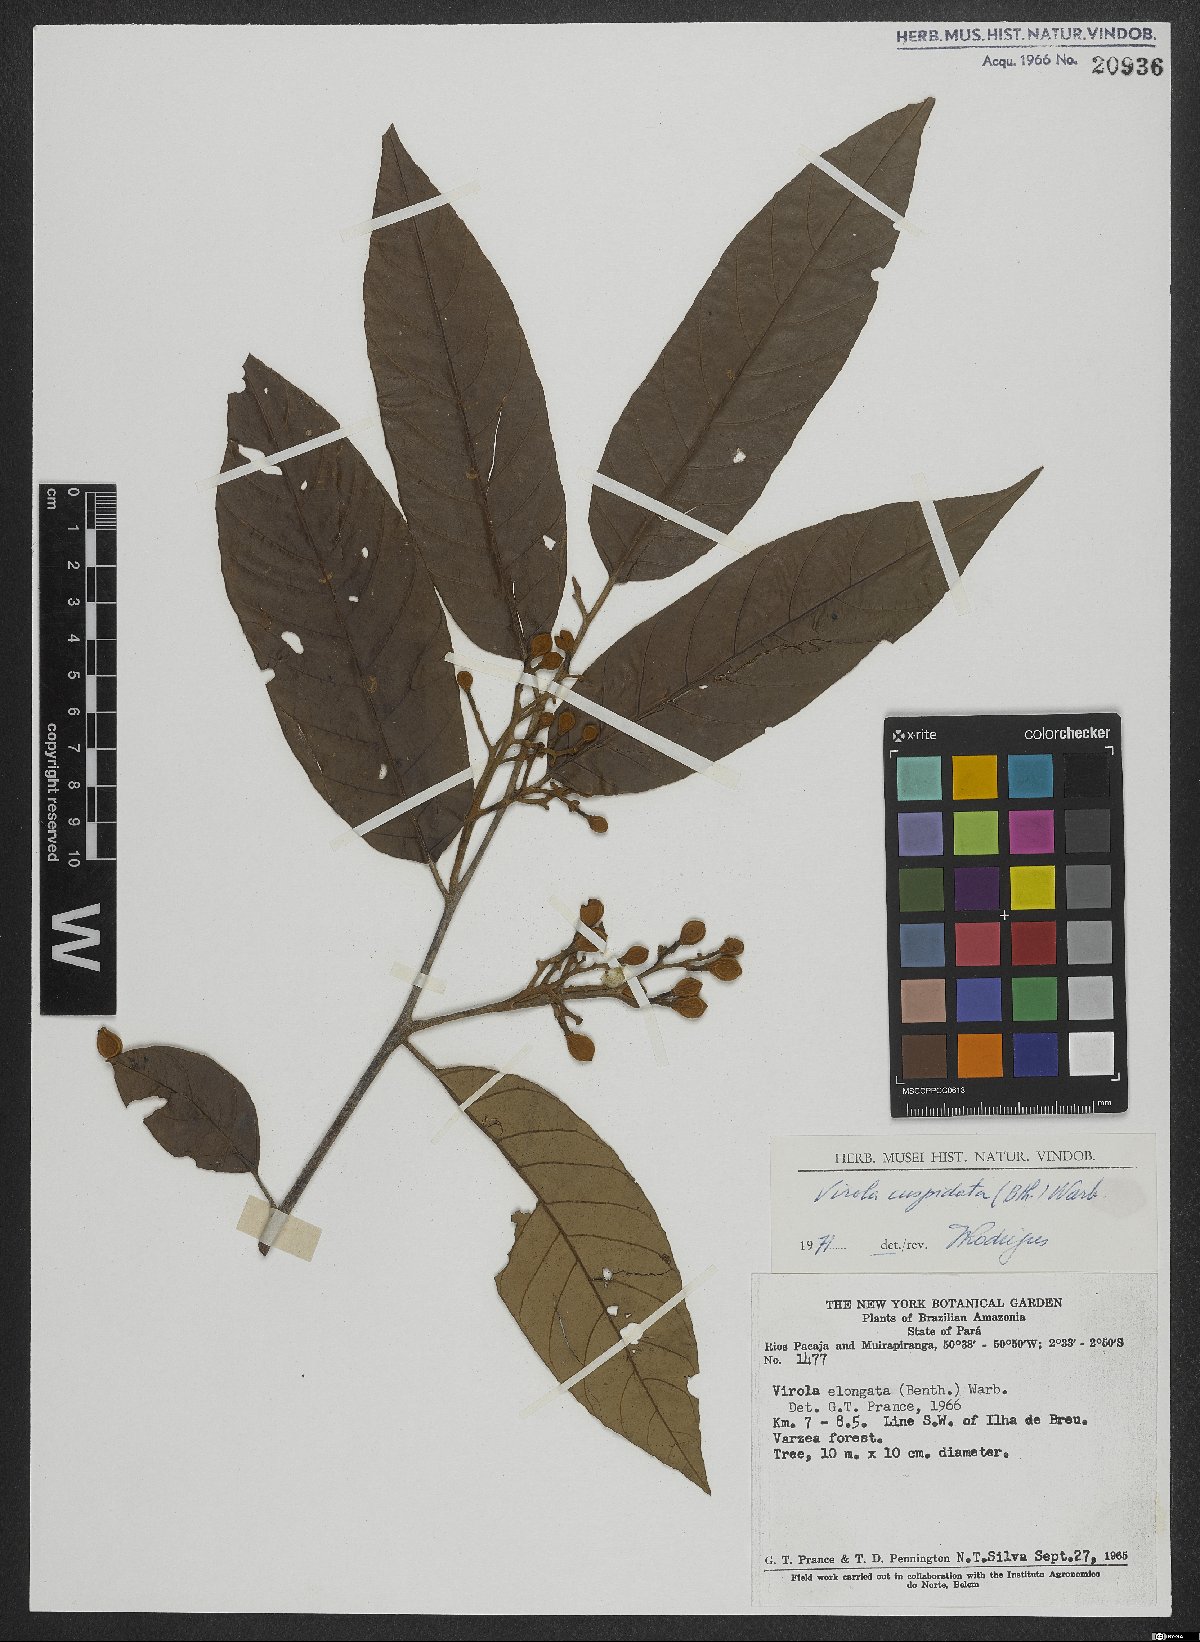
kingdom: Plantae
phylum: Tracheophyta
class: Magnoliopsida
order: Magnoliales
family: Myristicaceae
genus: Virola
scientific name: Virola elongata
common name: Sacred virola
